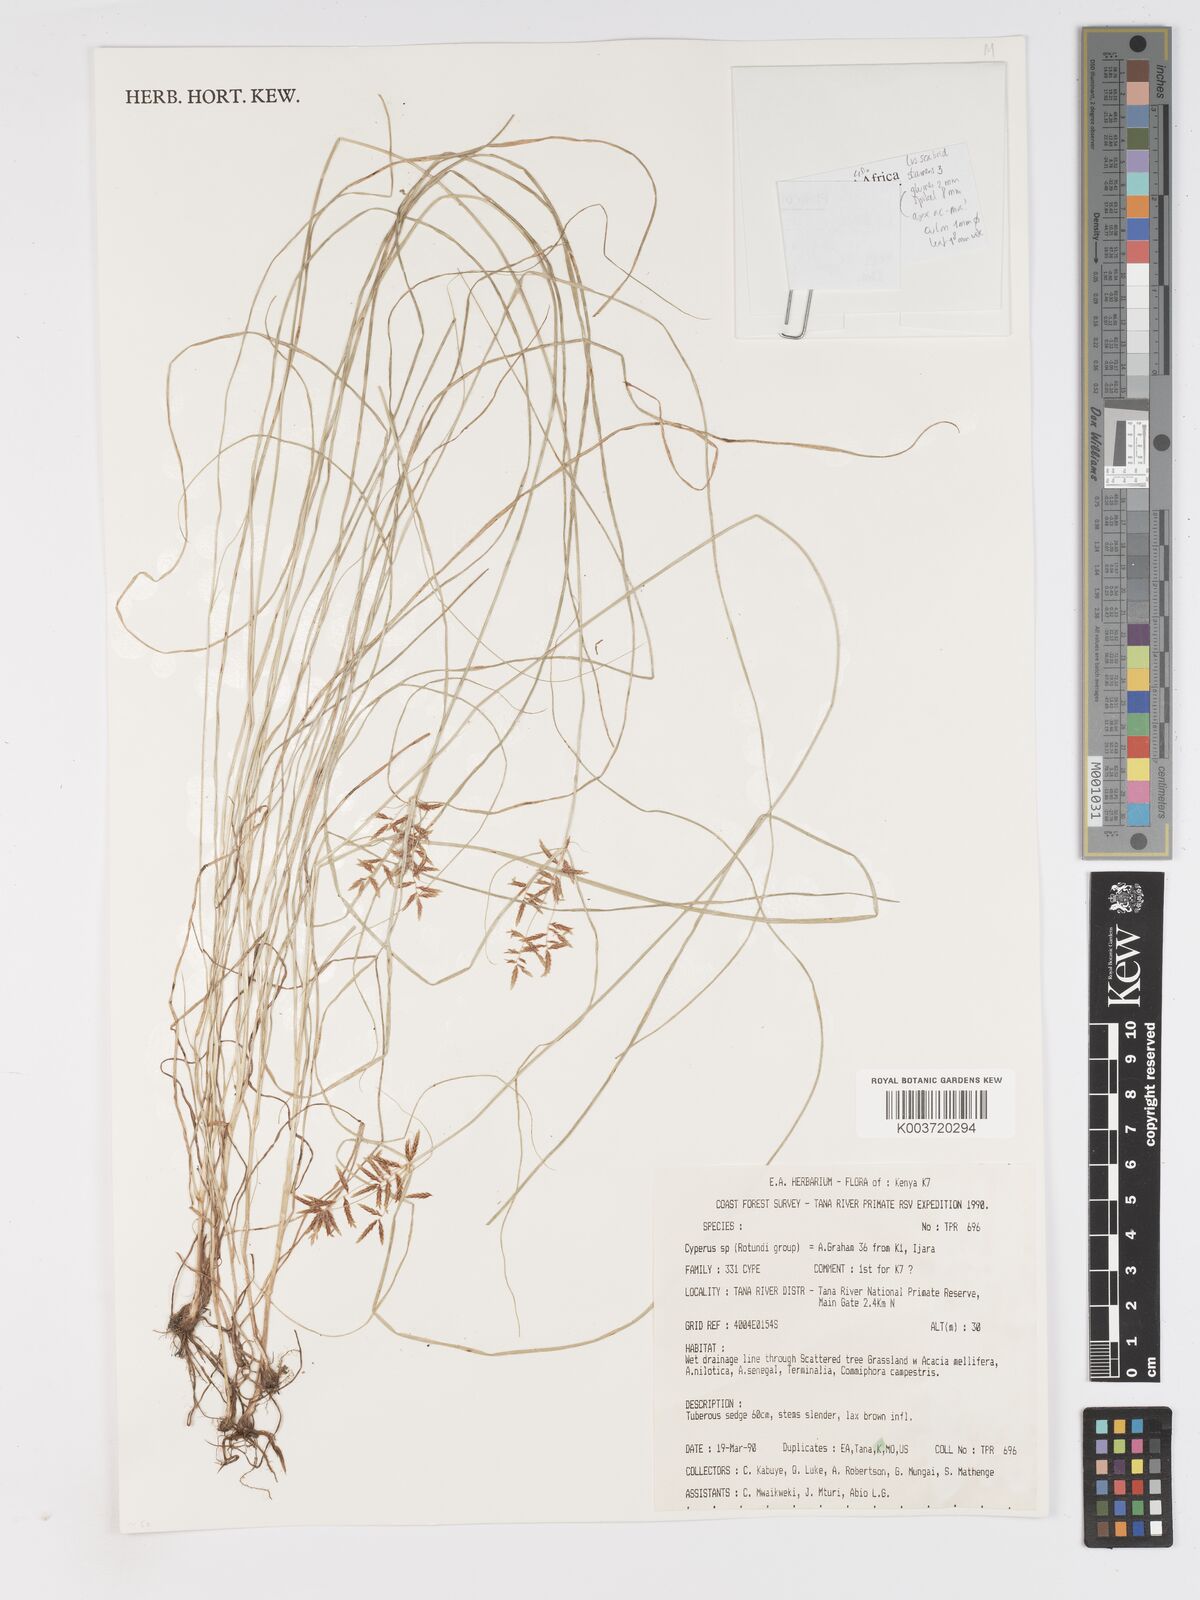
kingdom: Plantae
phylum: Tracheophyta
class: Liliopsida
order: Poales
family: Cyperaceae
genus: Cyperus
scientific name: Cyperus
